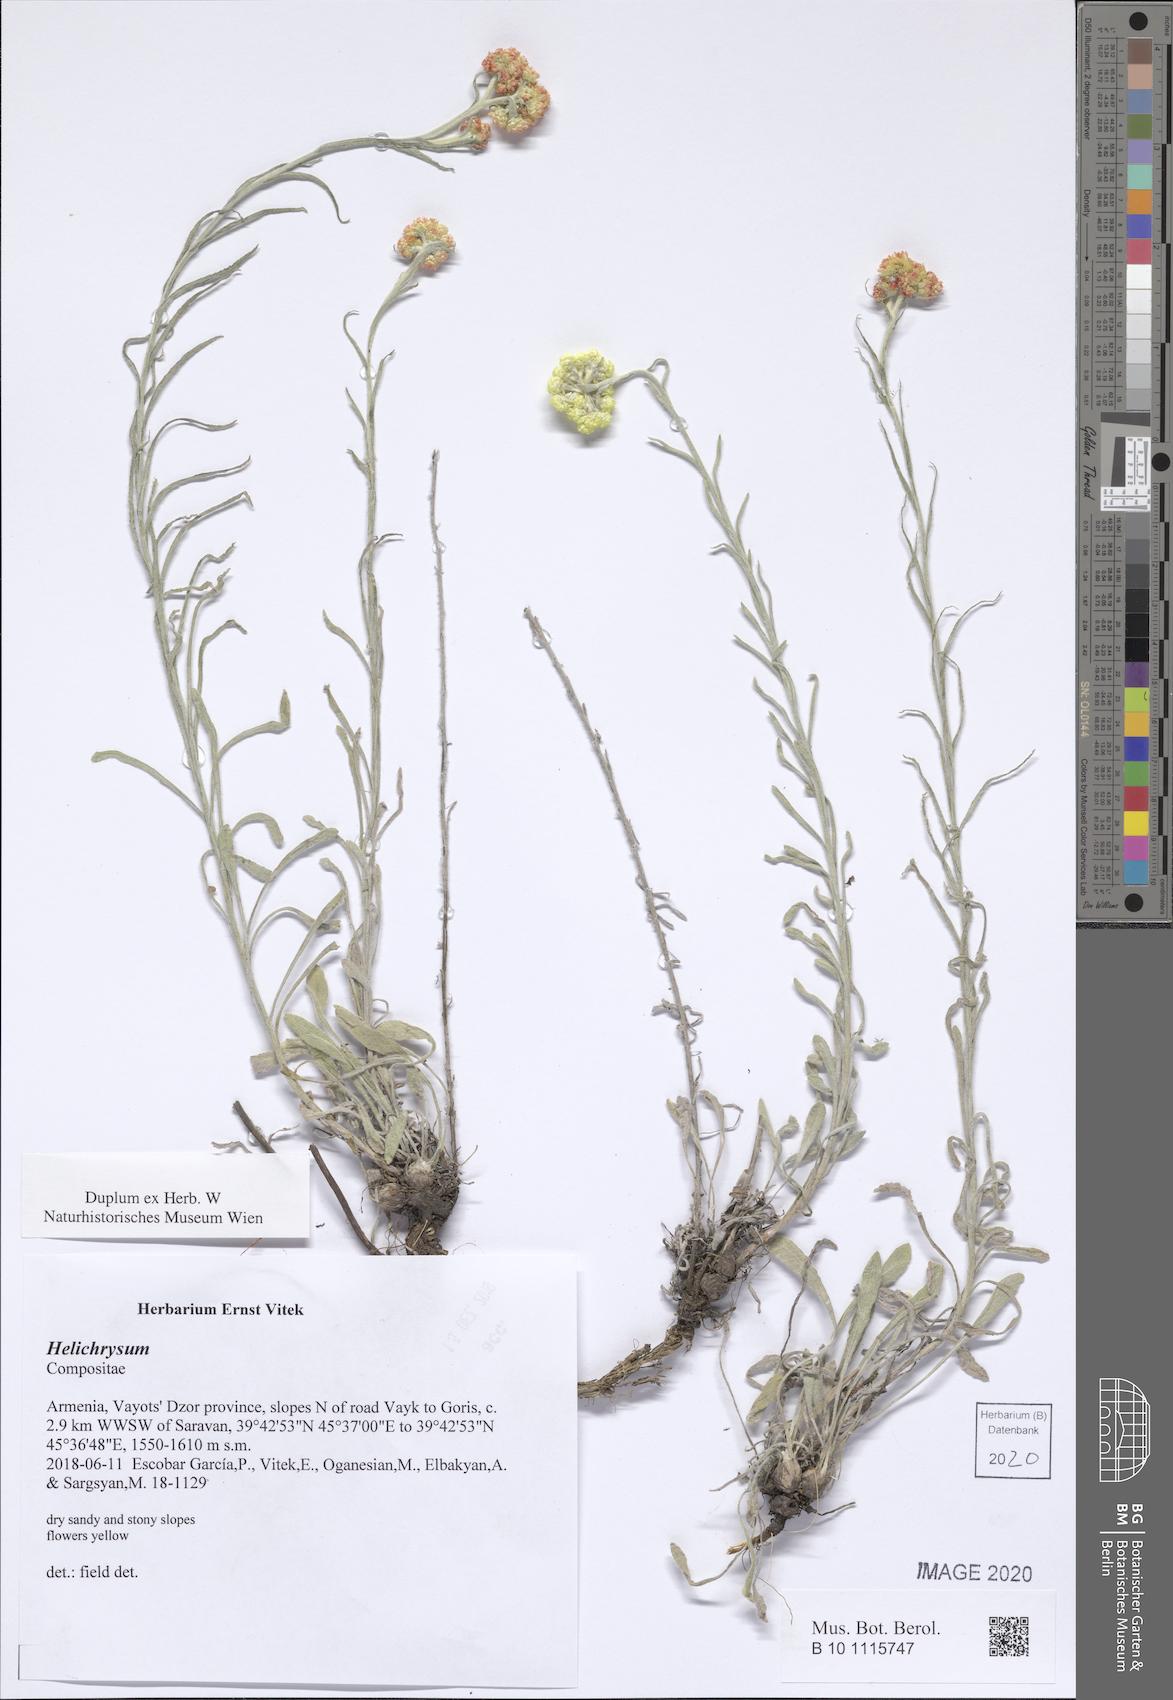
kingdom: Plantae
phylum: Tracheophyta
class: Magnoliopsida
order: Asterales
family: Asteraceae
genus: Helichrysum
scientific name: Helichrysum
